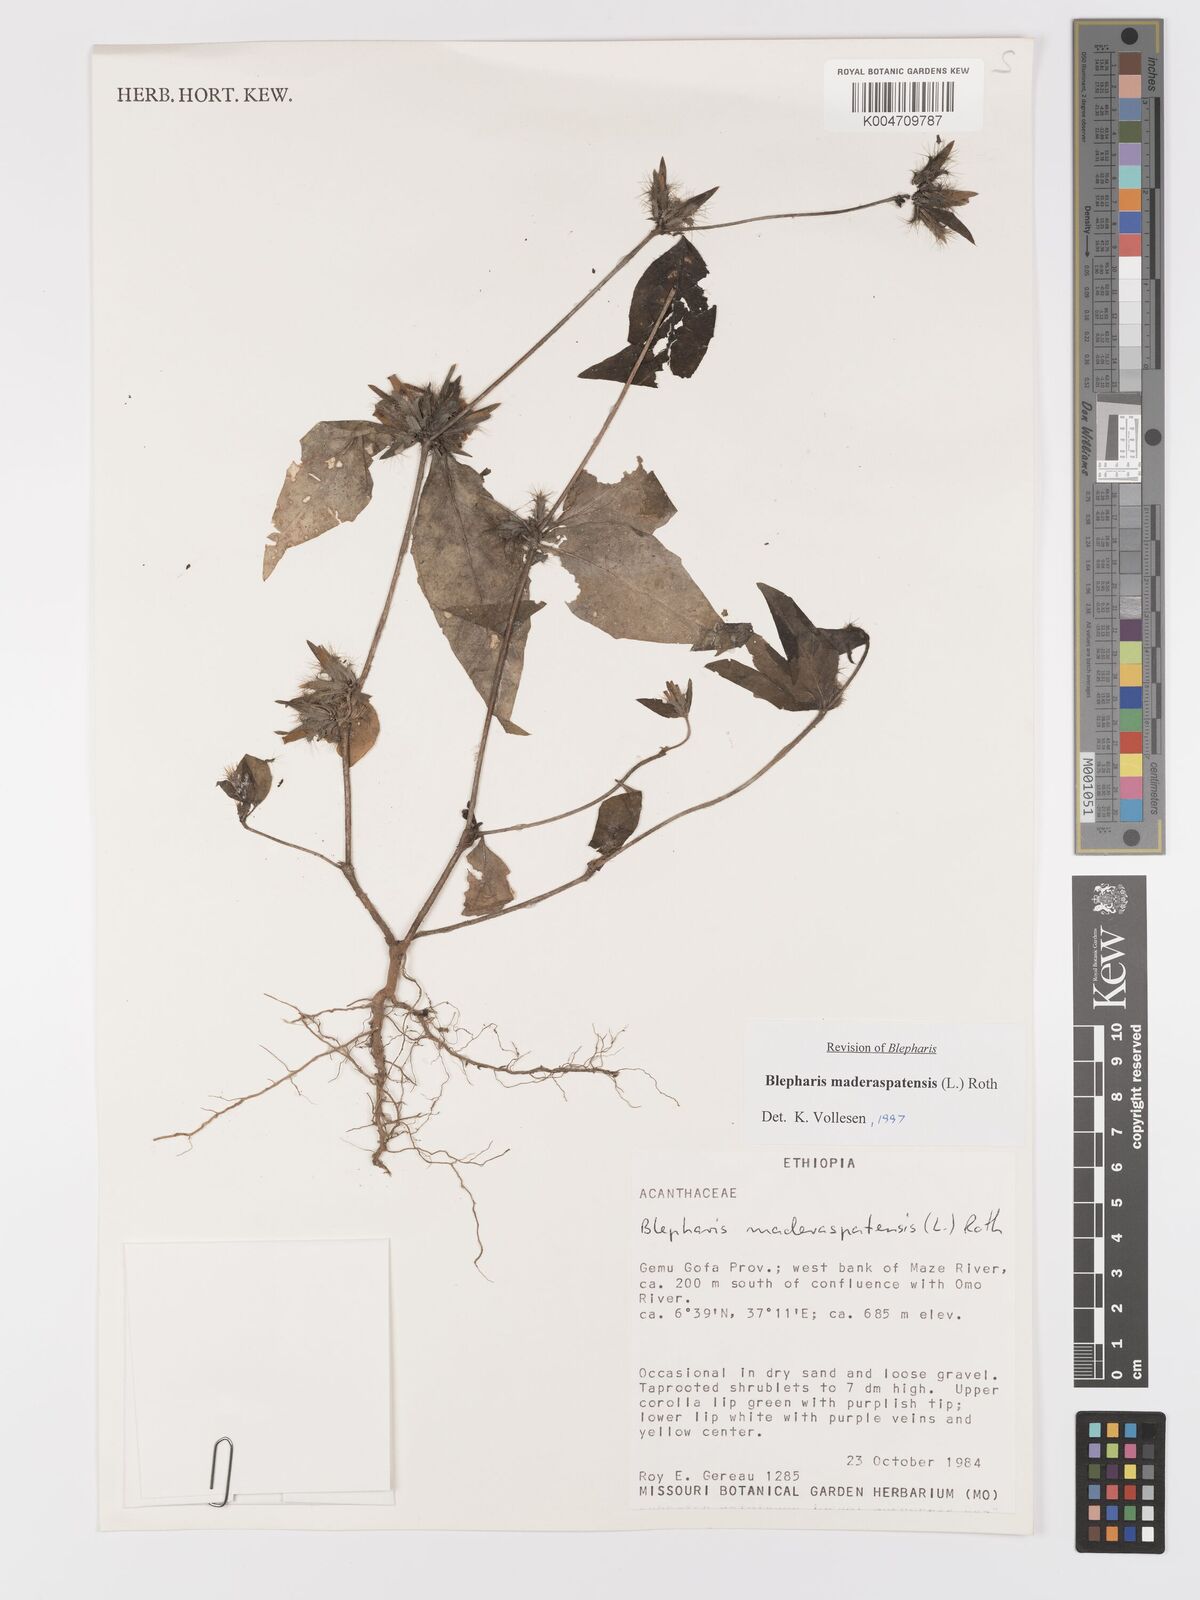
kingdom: Plantae
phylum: Tracheophyta
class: Magnoliopsida
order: Lamiales
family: Acanthaceae
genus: Blepharis
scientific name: Blepharis maderaspatensis
